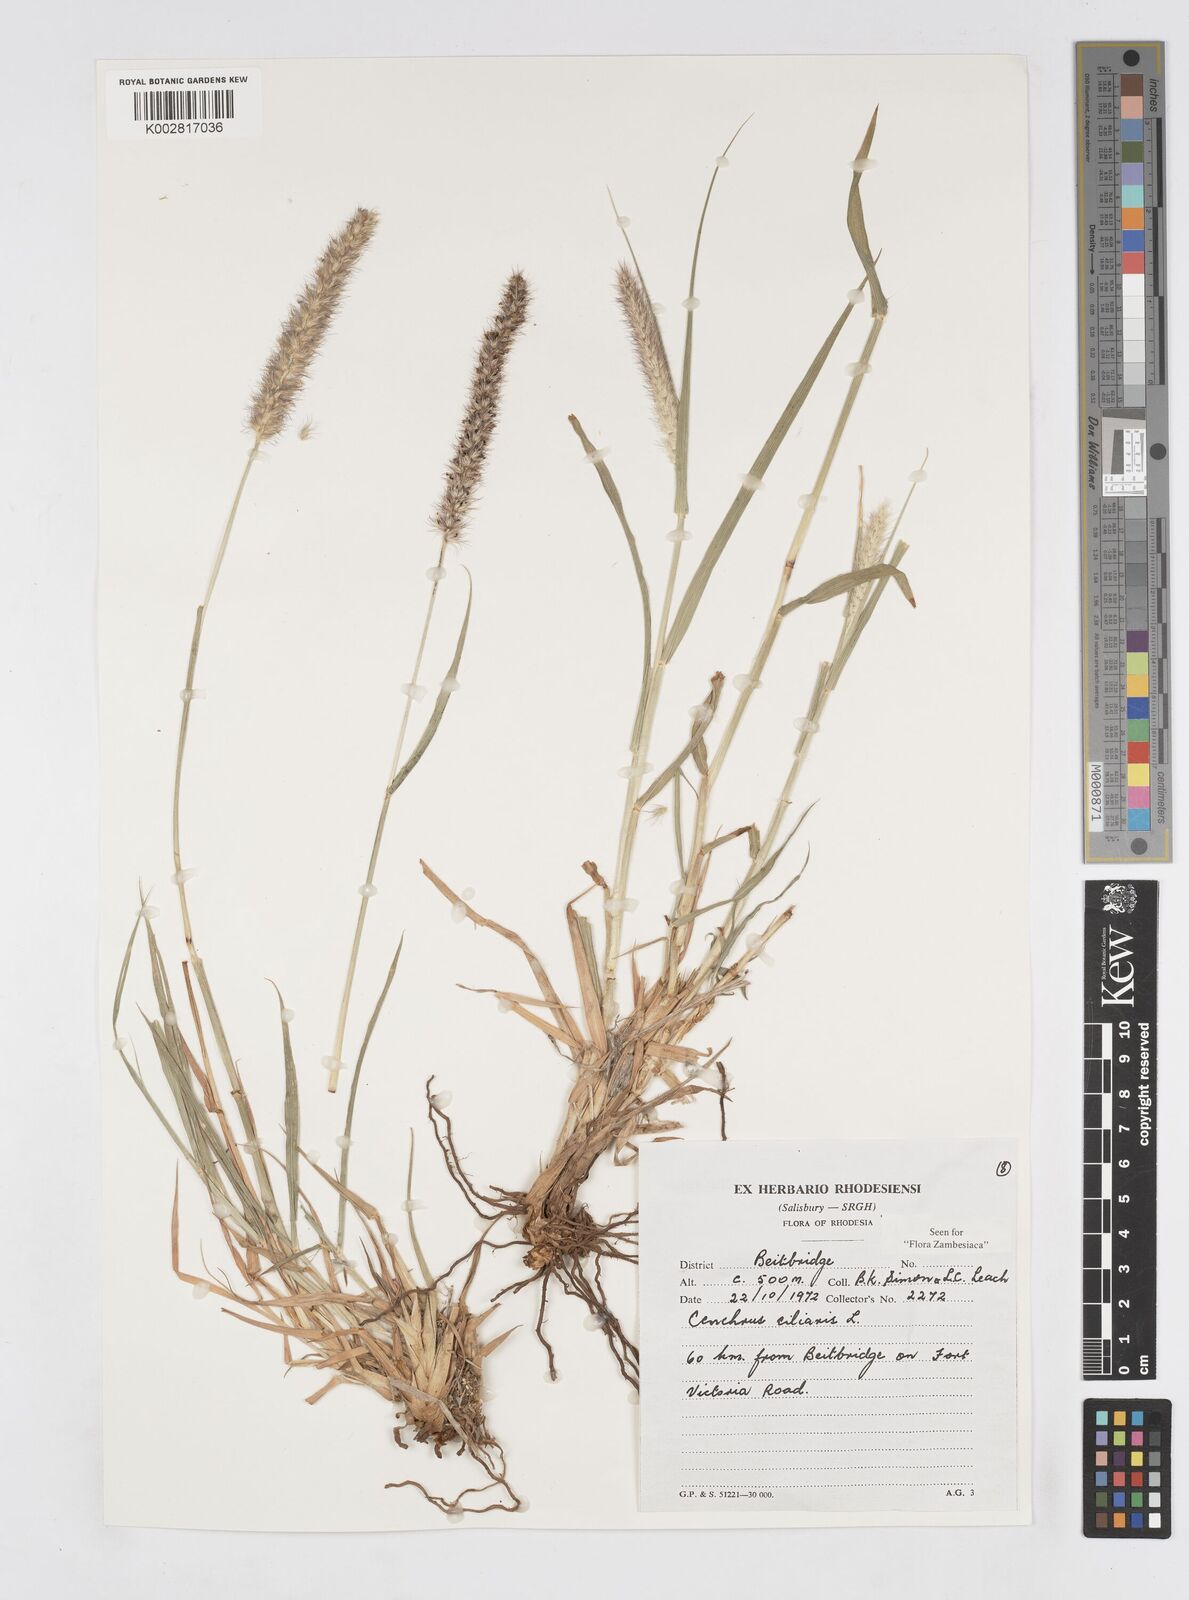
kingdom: Plantae
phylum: Tracheophyta
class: Liliopsida
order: Poales
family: Poaceae
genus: Cenchrus
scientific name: Cenchrus ciliaris
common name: Buffelgrass
